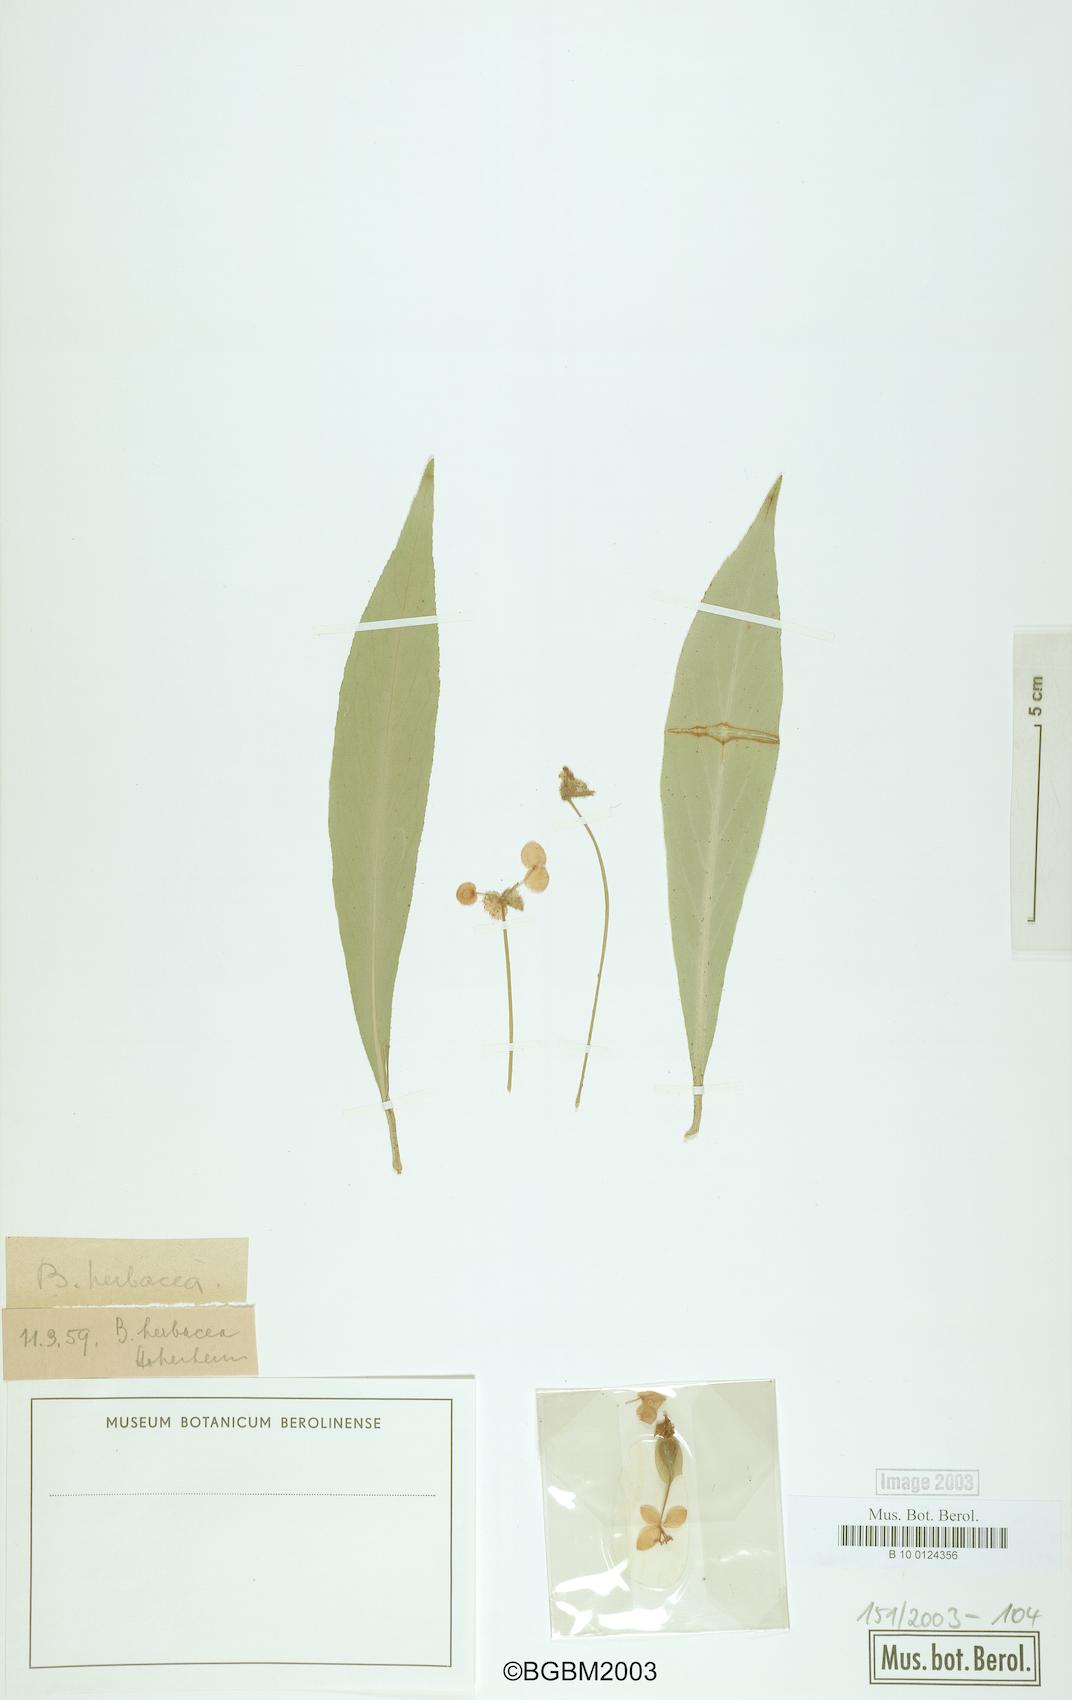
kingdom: Plantae
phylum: Tracheophyta
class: Magnoliopsida
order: Cucurbitales
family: Begoniaceae
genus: Begonia
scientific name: Begonia herbacea
